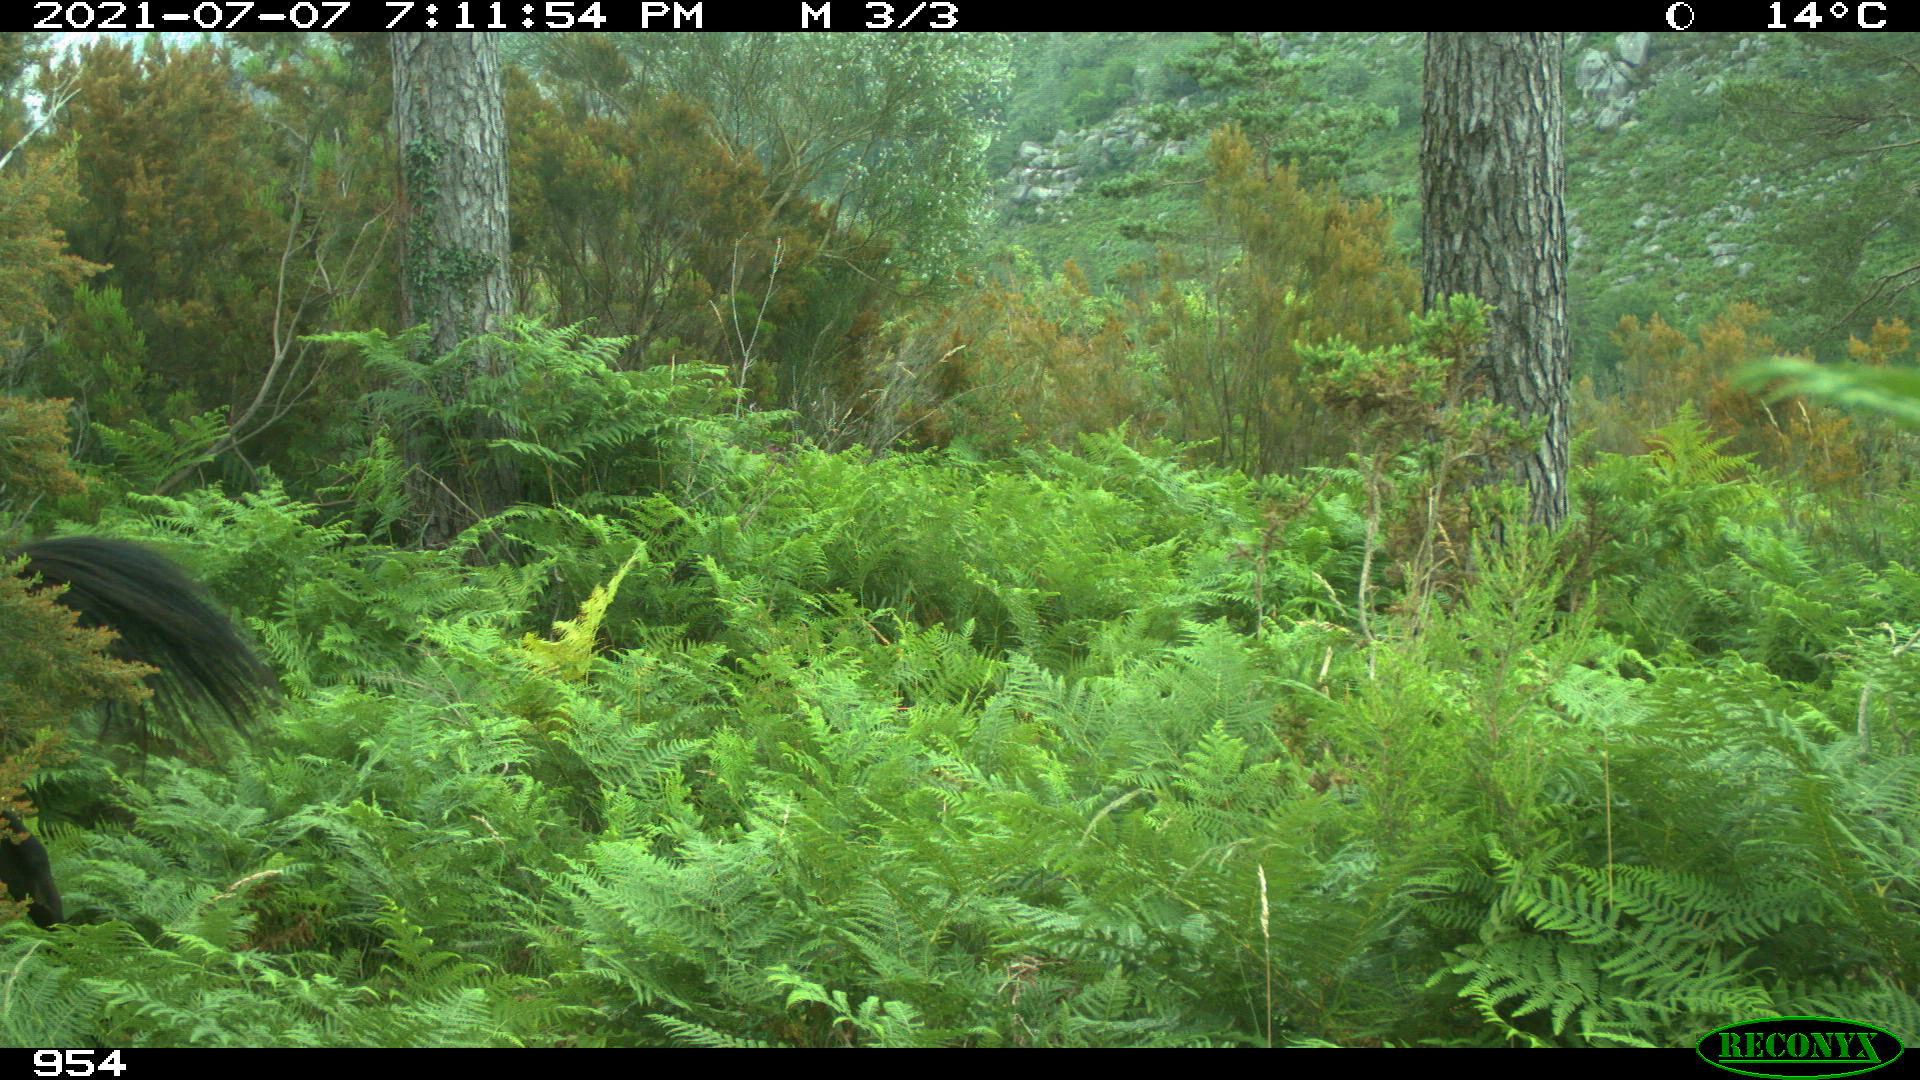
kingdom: Animalia
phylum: Chordata
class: Mammalia
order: Perissodactyla
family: Equidae
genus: Equus
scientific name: Equus caballus
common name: Horse
